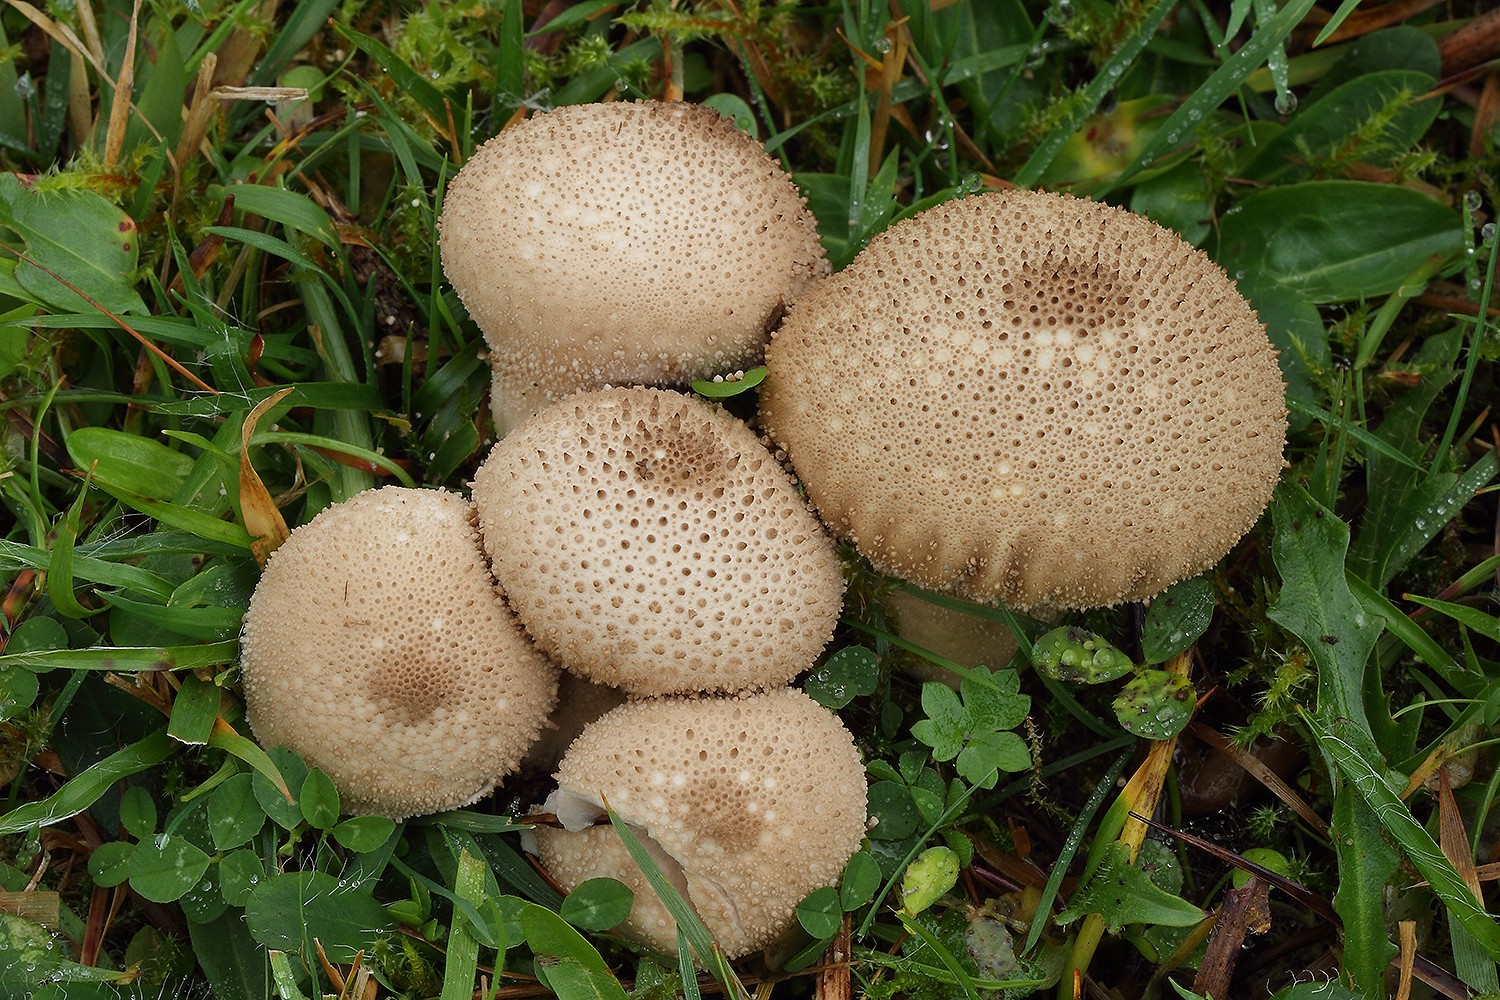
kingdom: Fungi
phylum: Basidiomycota
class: Agaricomycetes
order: Agaricales
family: Lycoperdaceae
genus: Lycoperdon
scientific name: Lycoperdon perlatum
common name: krystal-støvbold
